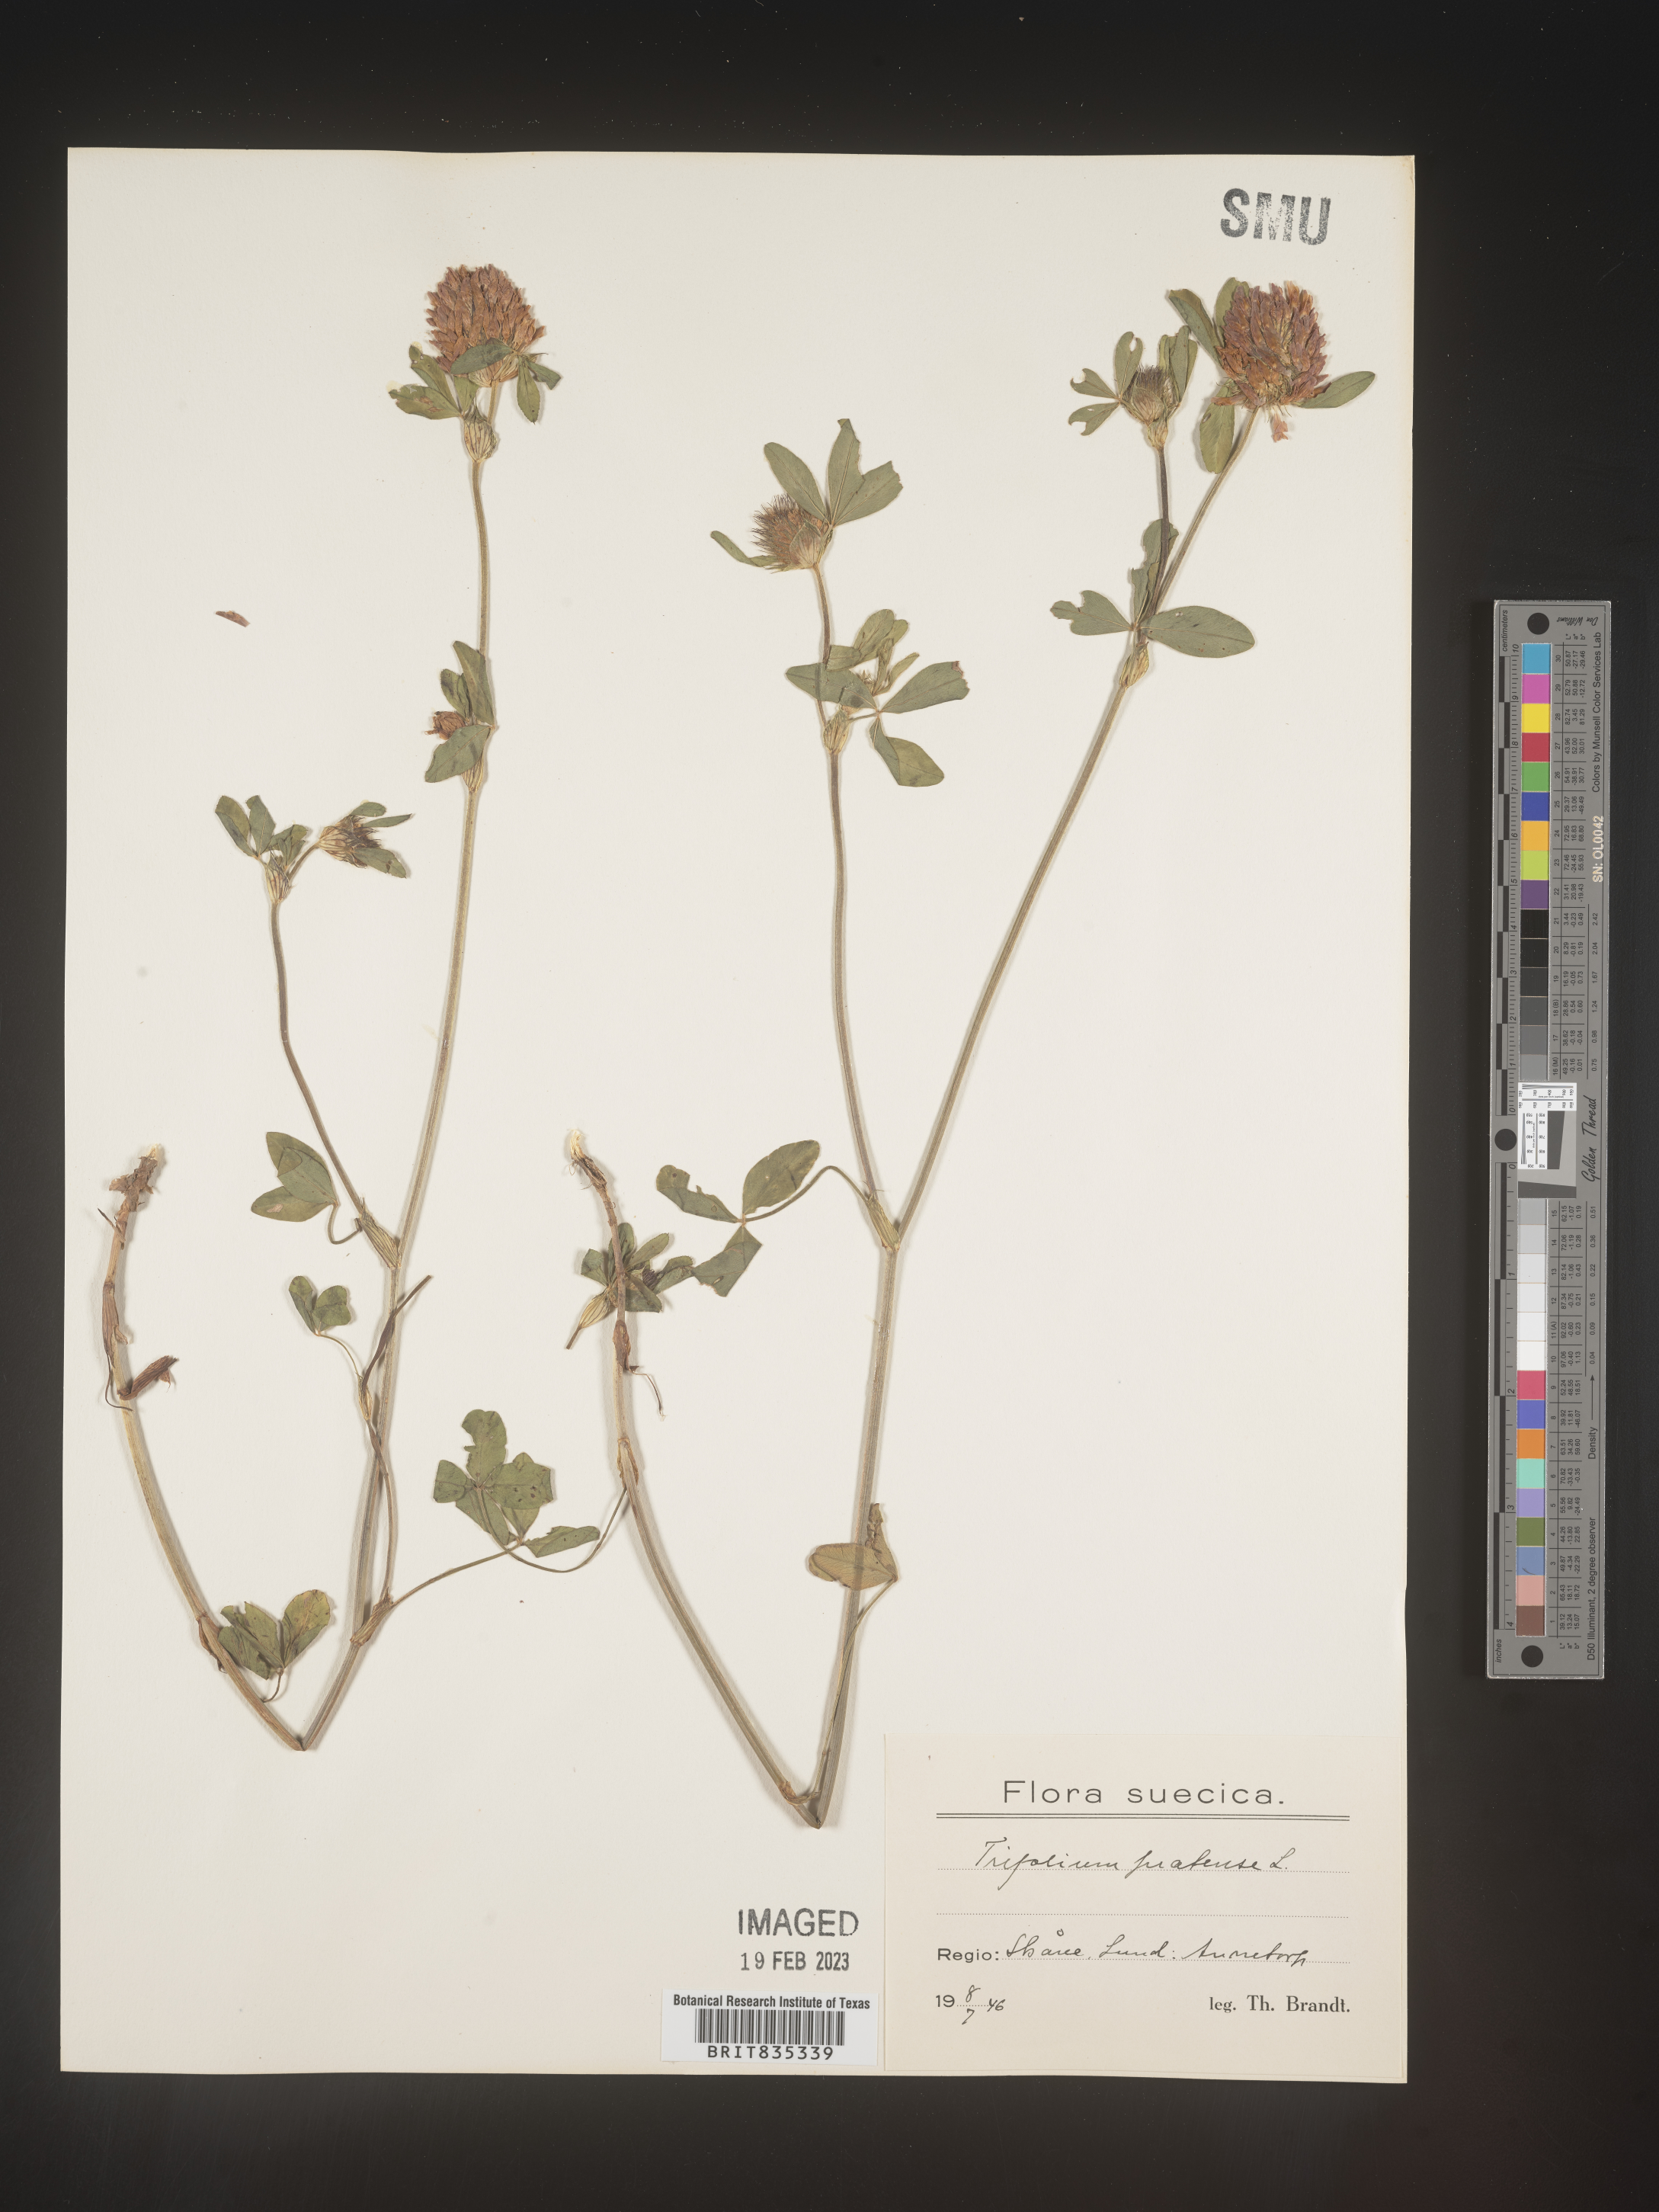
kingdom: Plantae
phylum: Tracheophyta
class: Magnoliopsida
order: Fabales
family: Fabaceae
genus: Trifolium
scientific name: Trifolium
